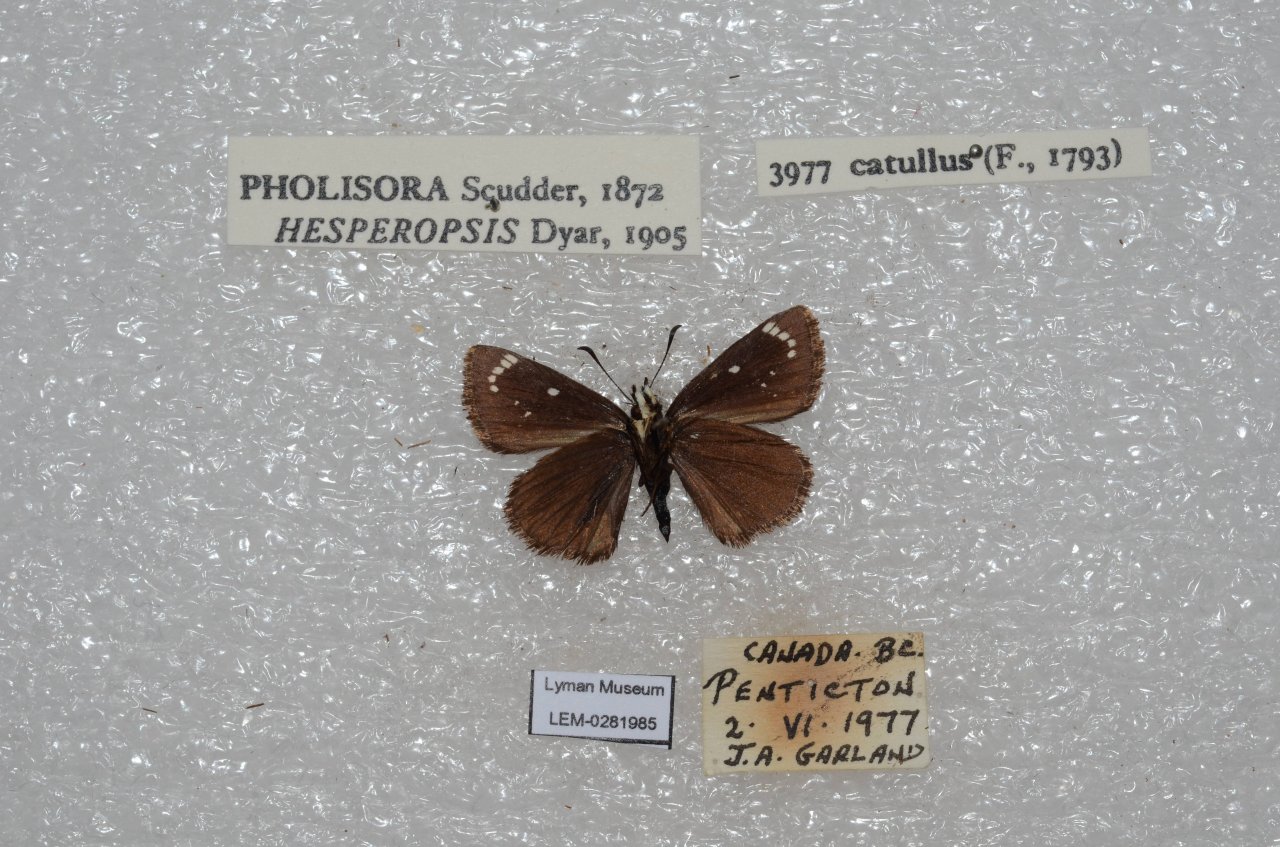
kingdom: Animalia
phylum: Arthropoda
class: Insecta
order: Lepidoptera
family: Hesperiidae
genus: Pholisora
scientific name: Pholisora catullus
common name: Common Sootywing
